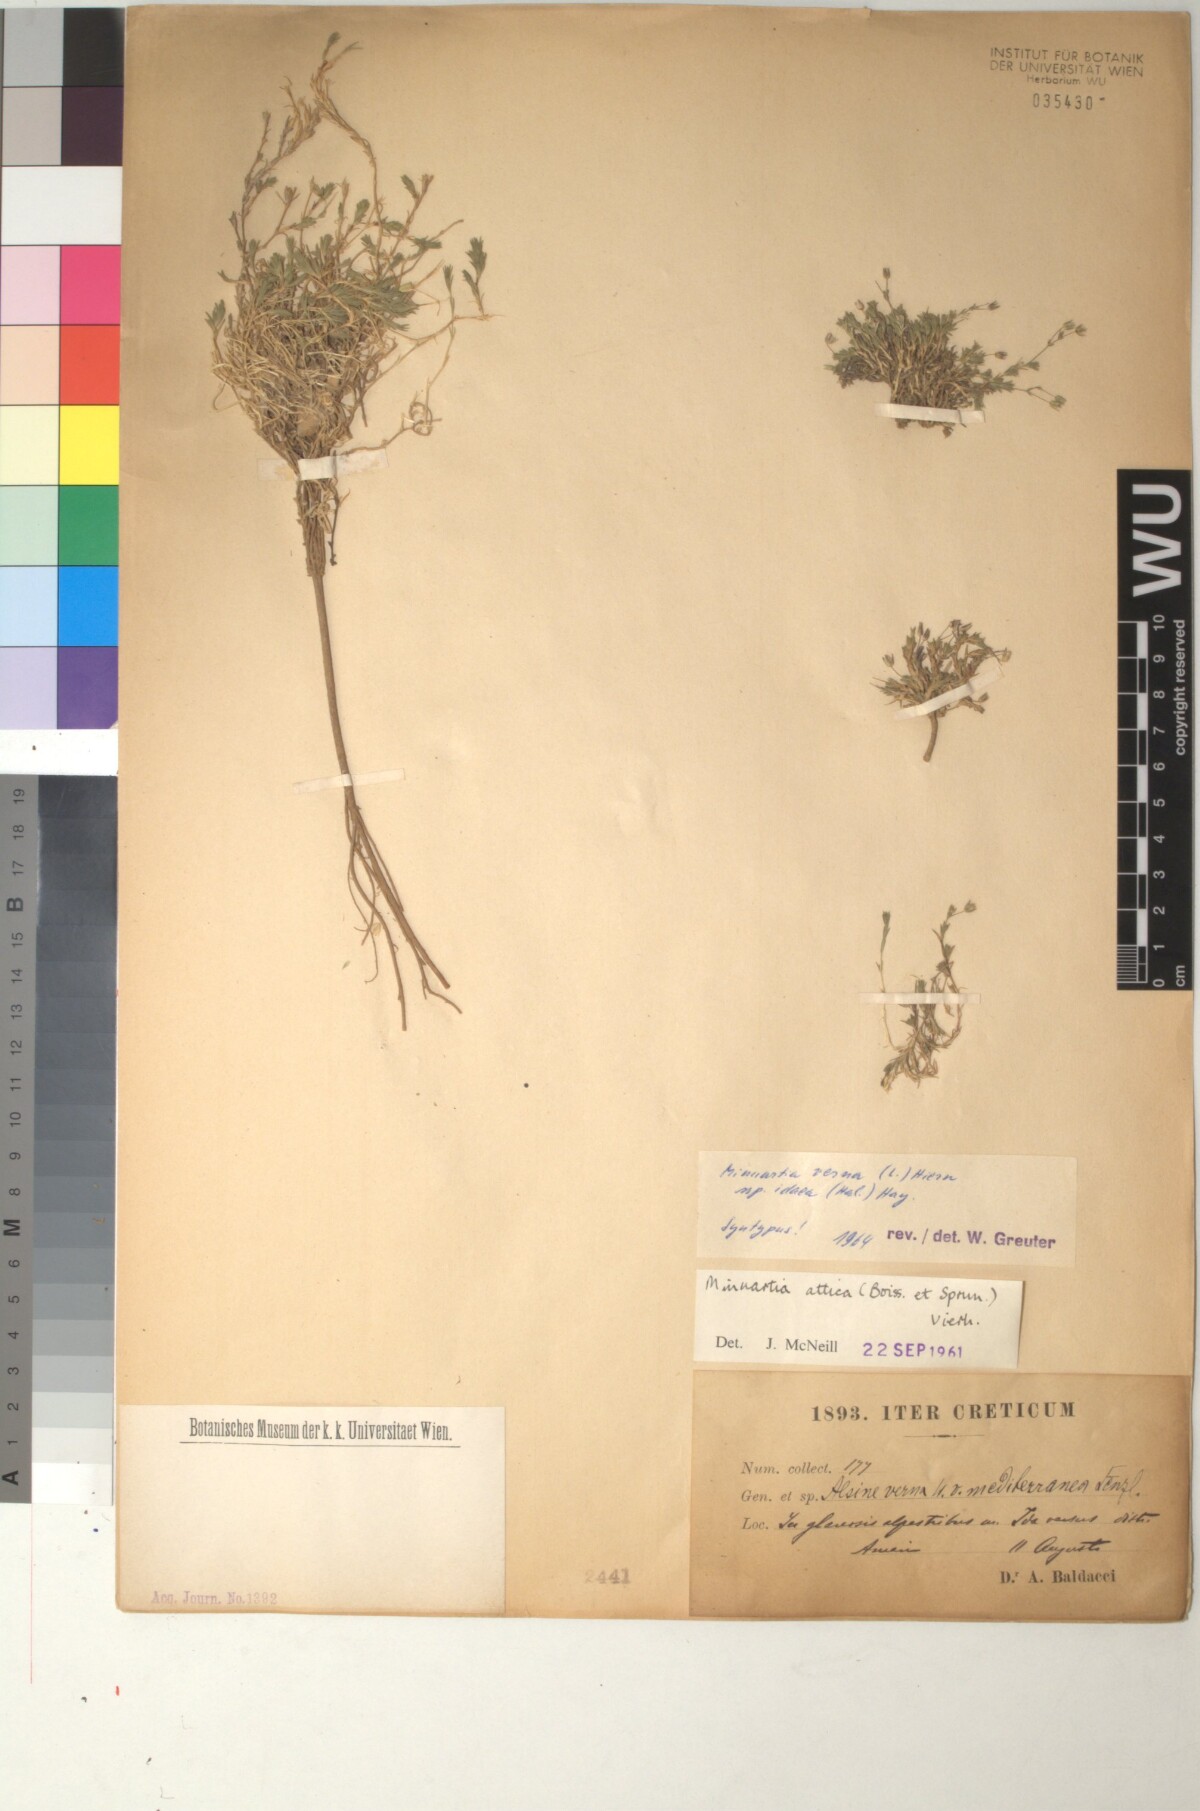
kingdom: Plantae
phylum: Tracheophyta
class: Magnoliopsida
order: Caryophyllales
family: Caryophyllaceae
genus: Sabulina
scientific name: Sabulina attica
